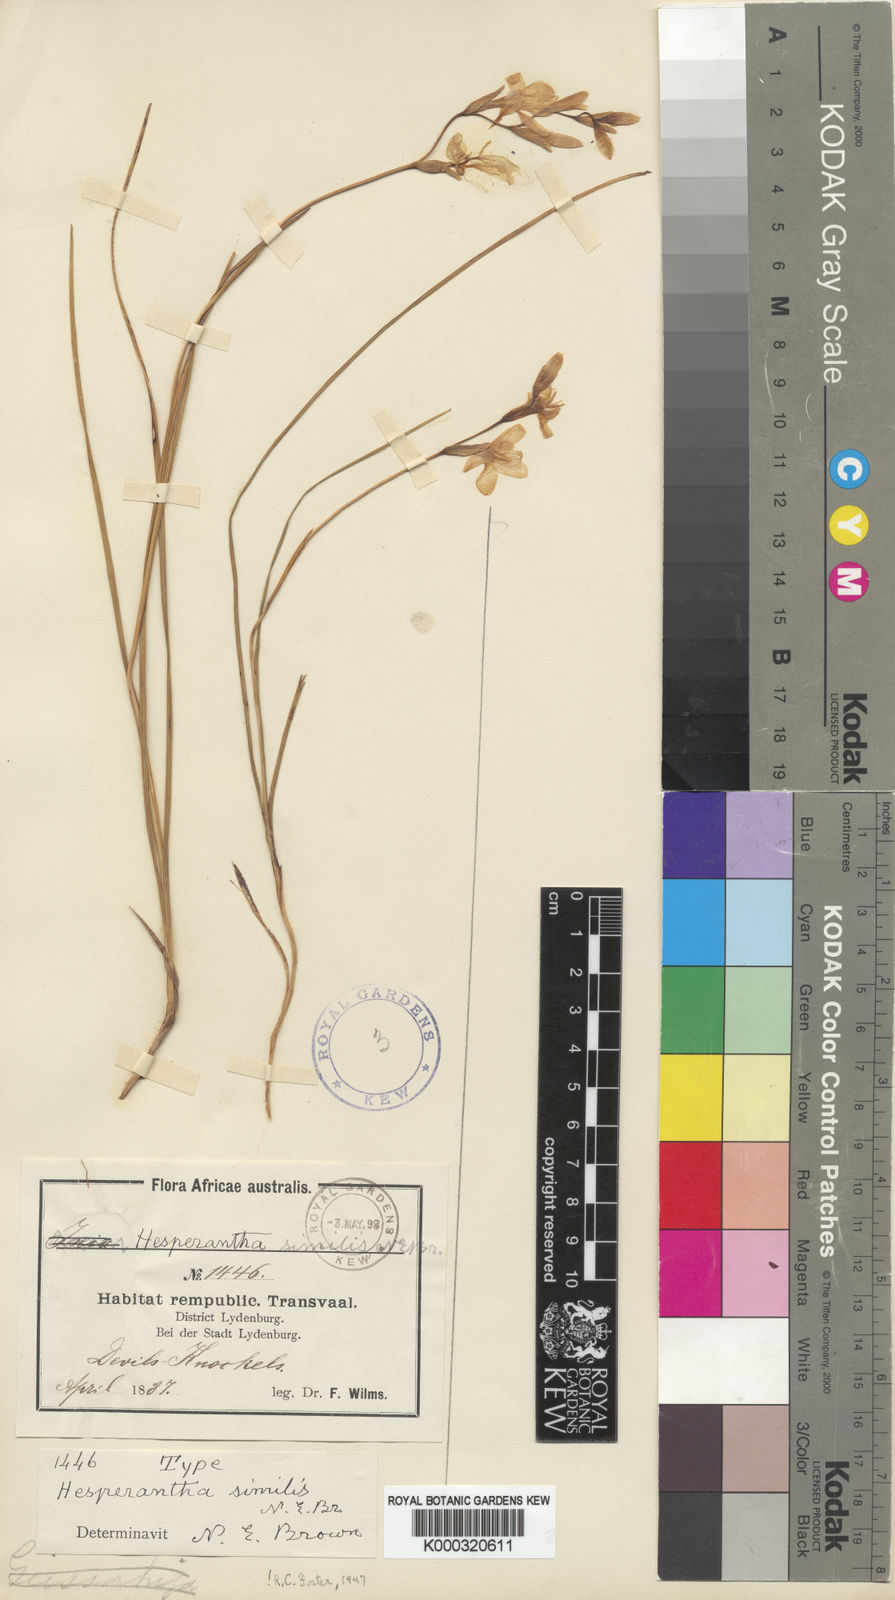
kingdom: Plantae
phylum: Tracheophyta
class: Liliopsida
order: Asparagales
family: Iridaceae
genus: Hesperantha
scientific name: Hesperantha schlechteri
